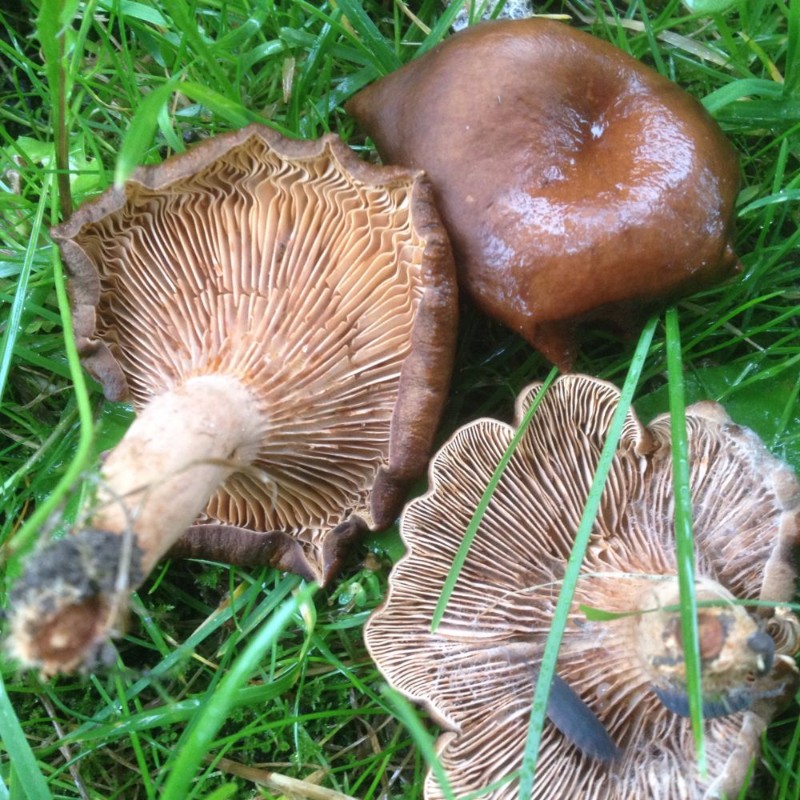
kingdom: Fungi
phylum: Basidiomycota
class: Agaricomycetes
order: Russulales
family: Russulaceae
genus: Lactarius
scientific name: Lactarius serifluus
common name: tæge-mælkehat
